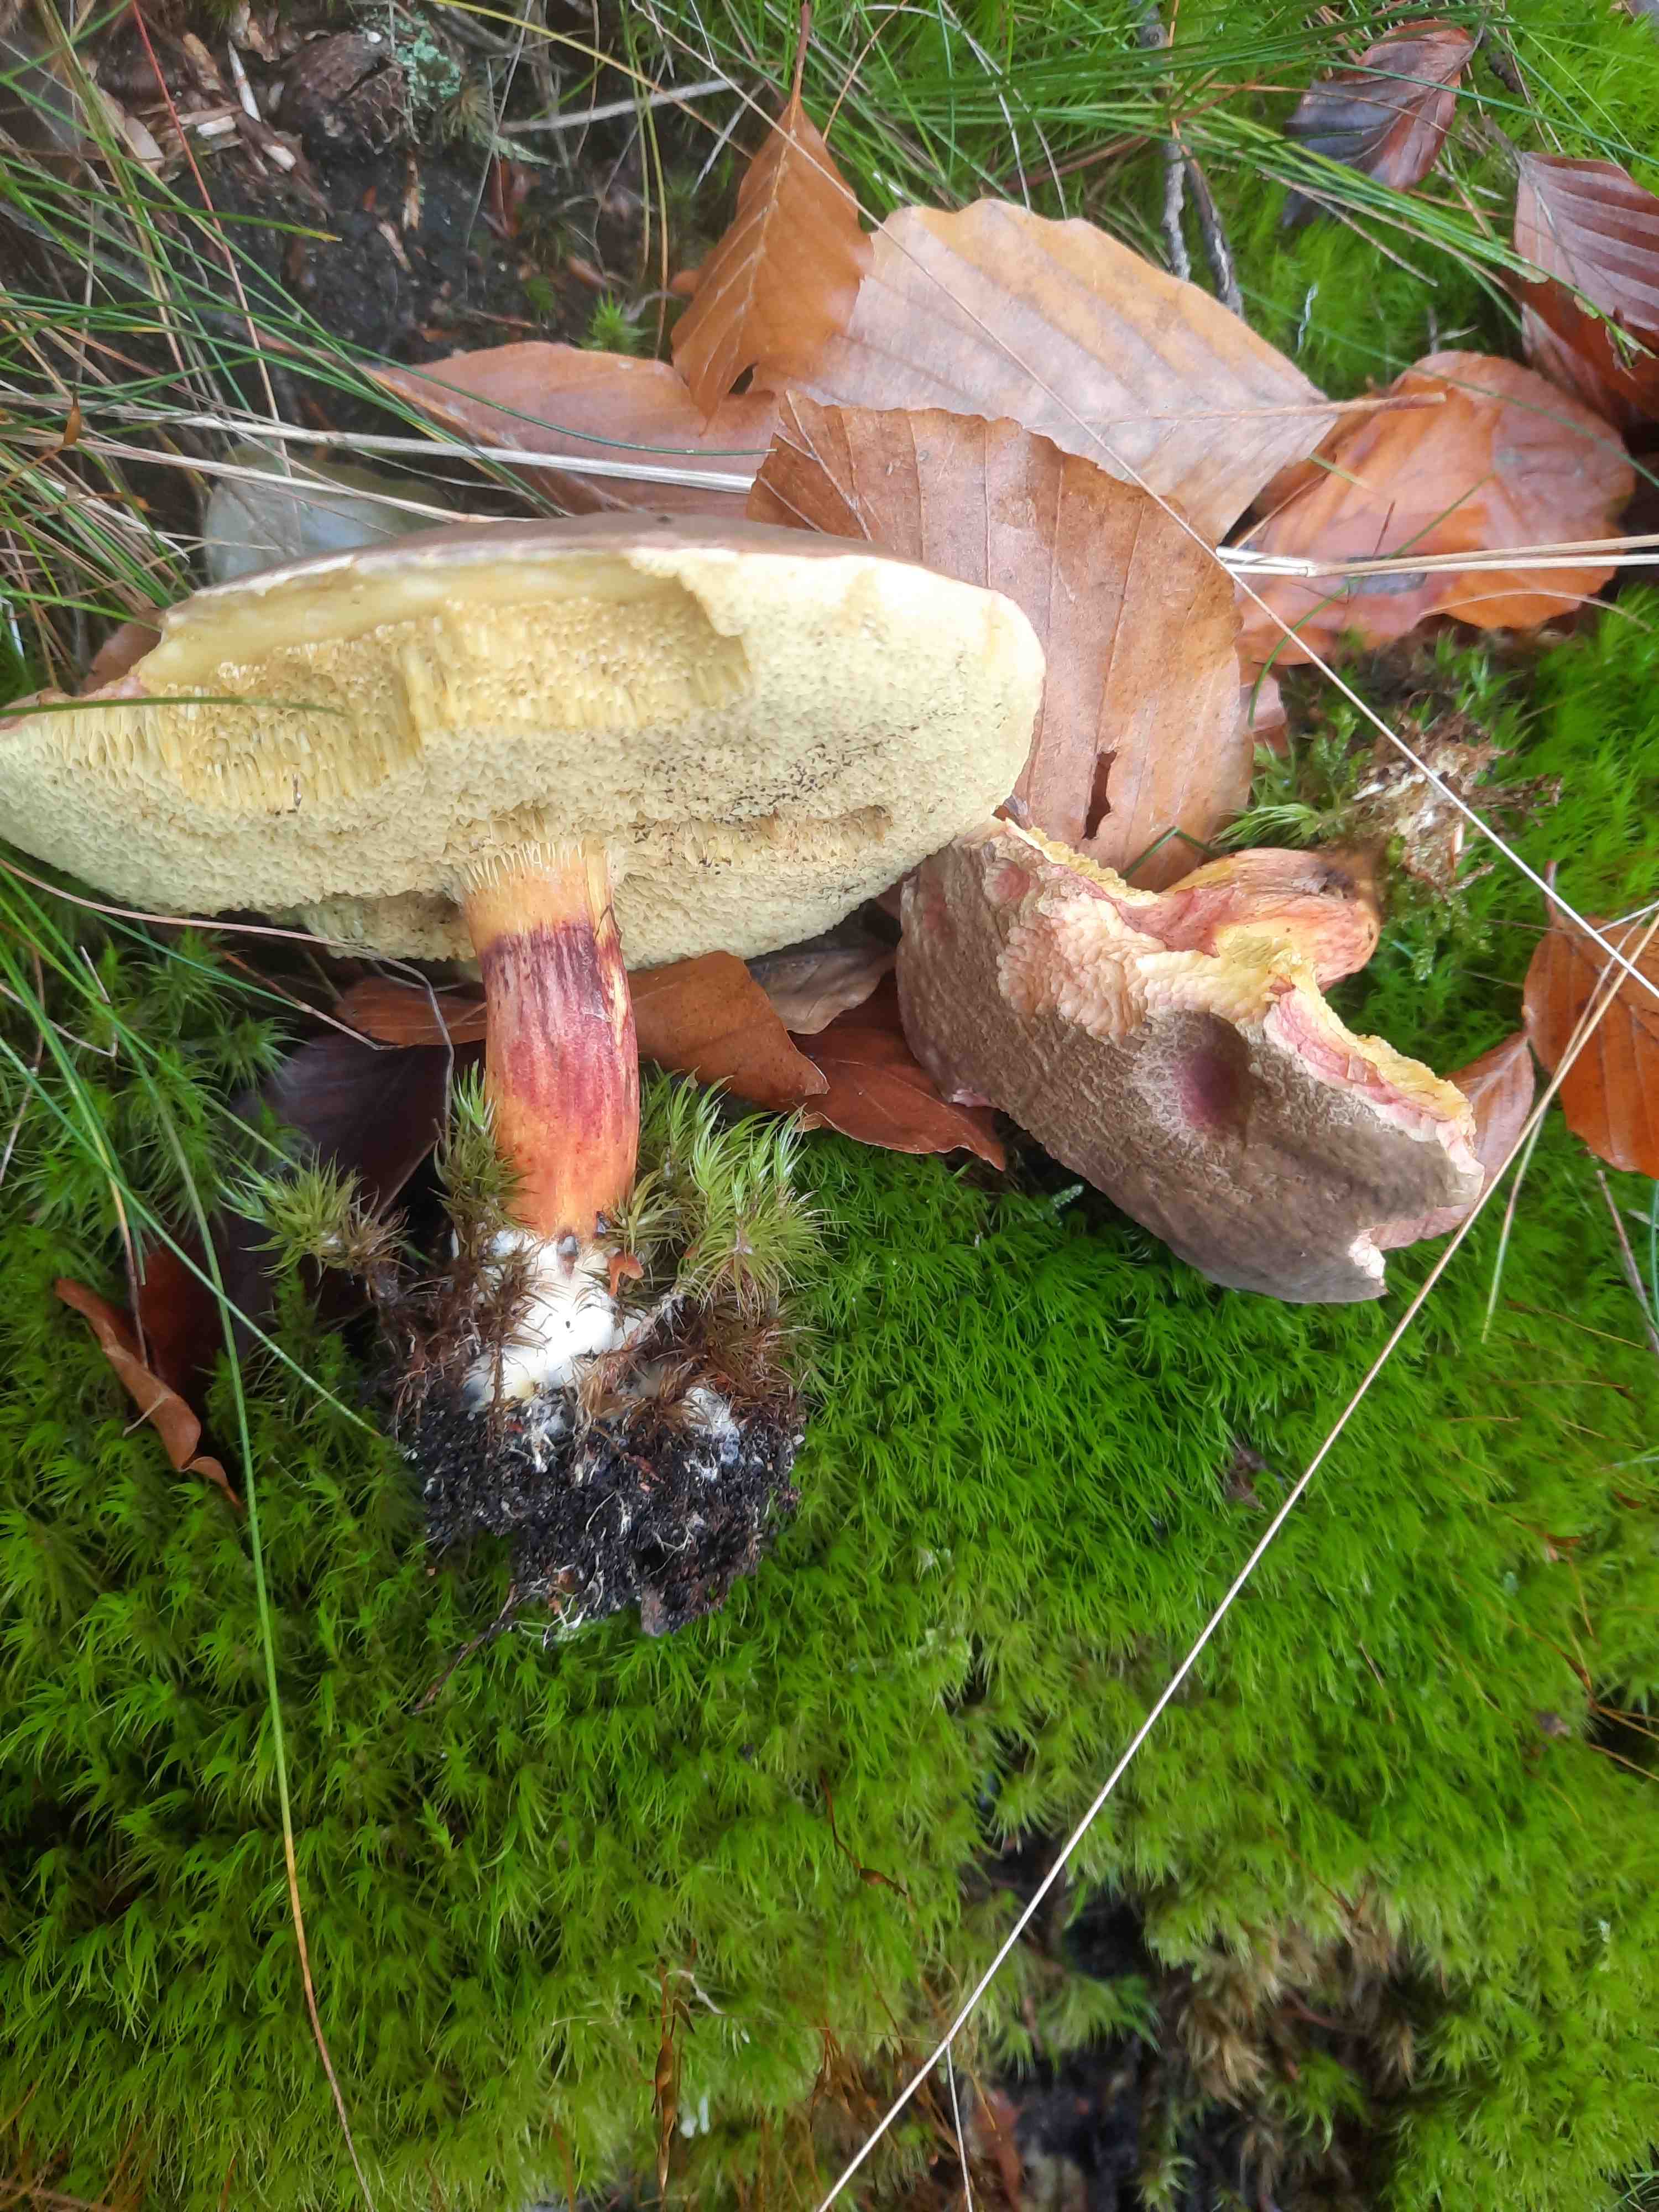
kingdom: Fungi
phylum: Basidiomycota
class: Agaricomycetes
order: Boletales
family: Boletaceae
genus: Xerocomellus
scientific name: Xerocomellus chrysenteron
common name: rødsprukken rørhat
